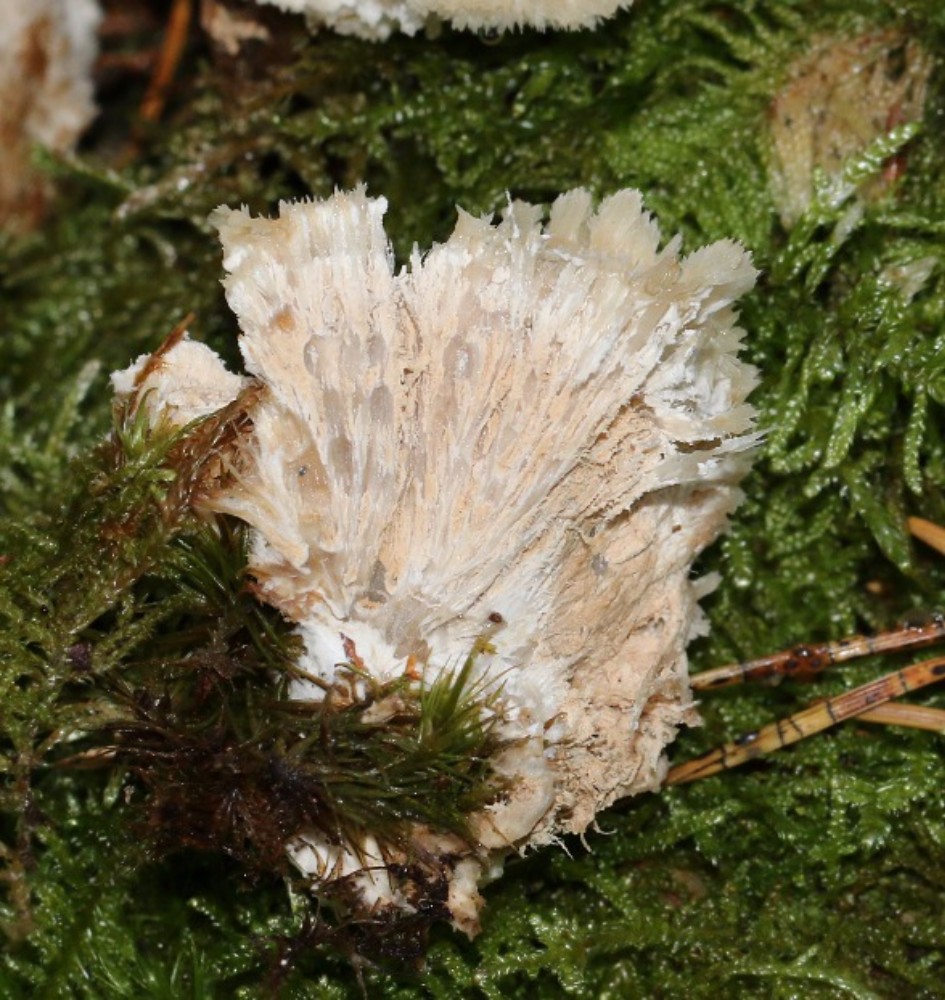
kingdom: Fungi
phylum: Basidiomycota
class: Agaricomycetes
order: Polyporales
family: Dacryobolaceae
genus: Postia
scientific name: Postia ptychogaster
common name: støvende kødporesvamp
